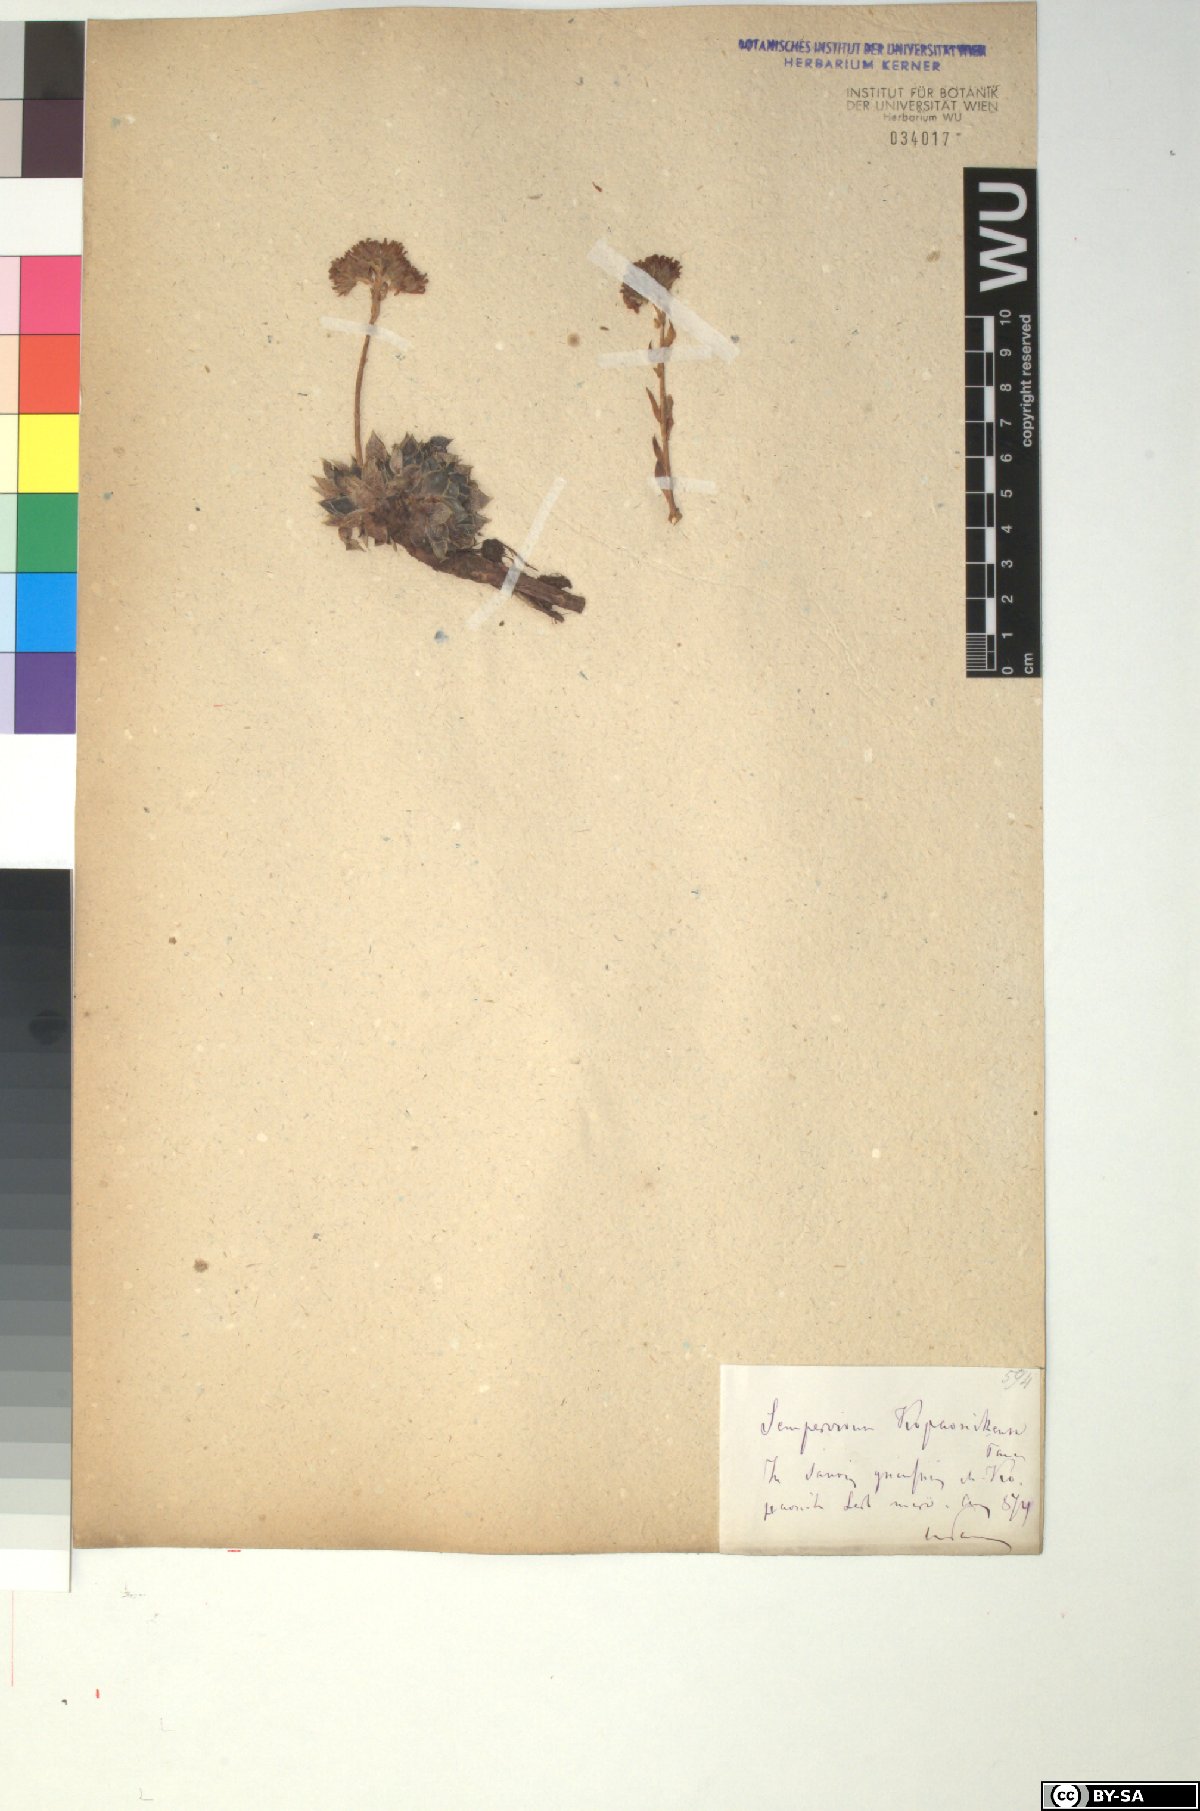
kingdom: Plantae
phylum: Tracheophyta
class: Magnoliopsida
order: Saxifragales
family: Crassulaceae
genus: Sempervivum
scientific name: Sempervivum heuffelii
